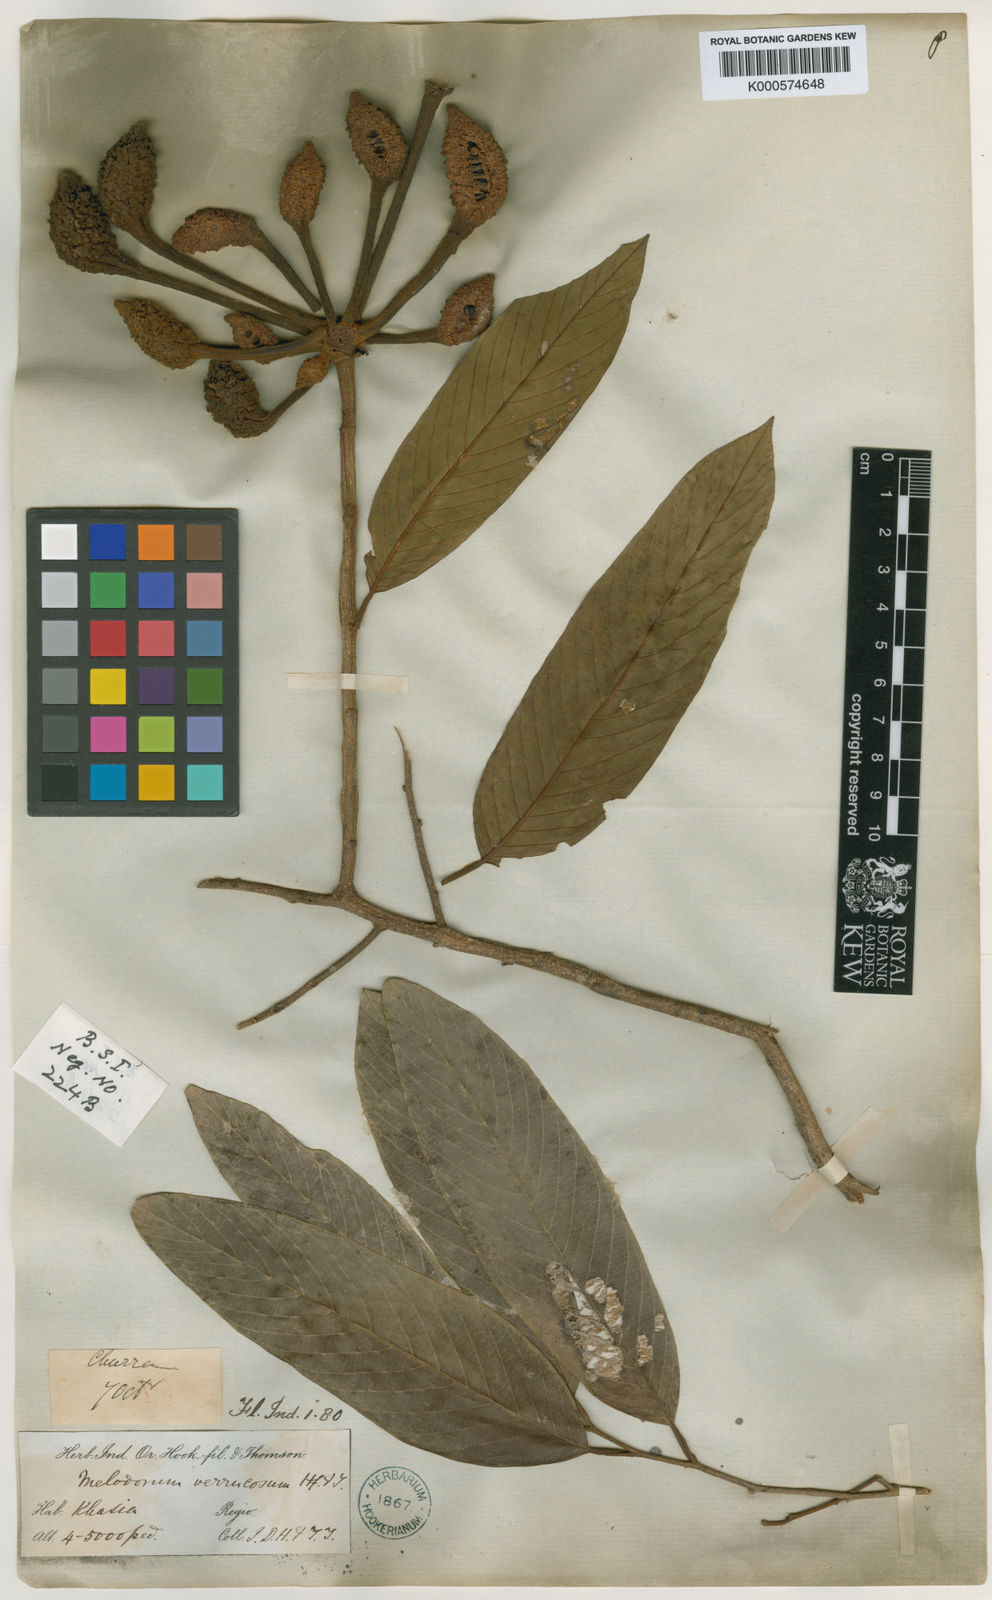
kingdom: Plantae
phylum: Tracheophyta
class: Magnoliopsida
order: Magnoliales
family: Annonaceae
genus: Fissistigma
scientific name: Fissistigma verrucosum
